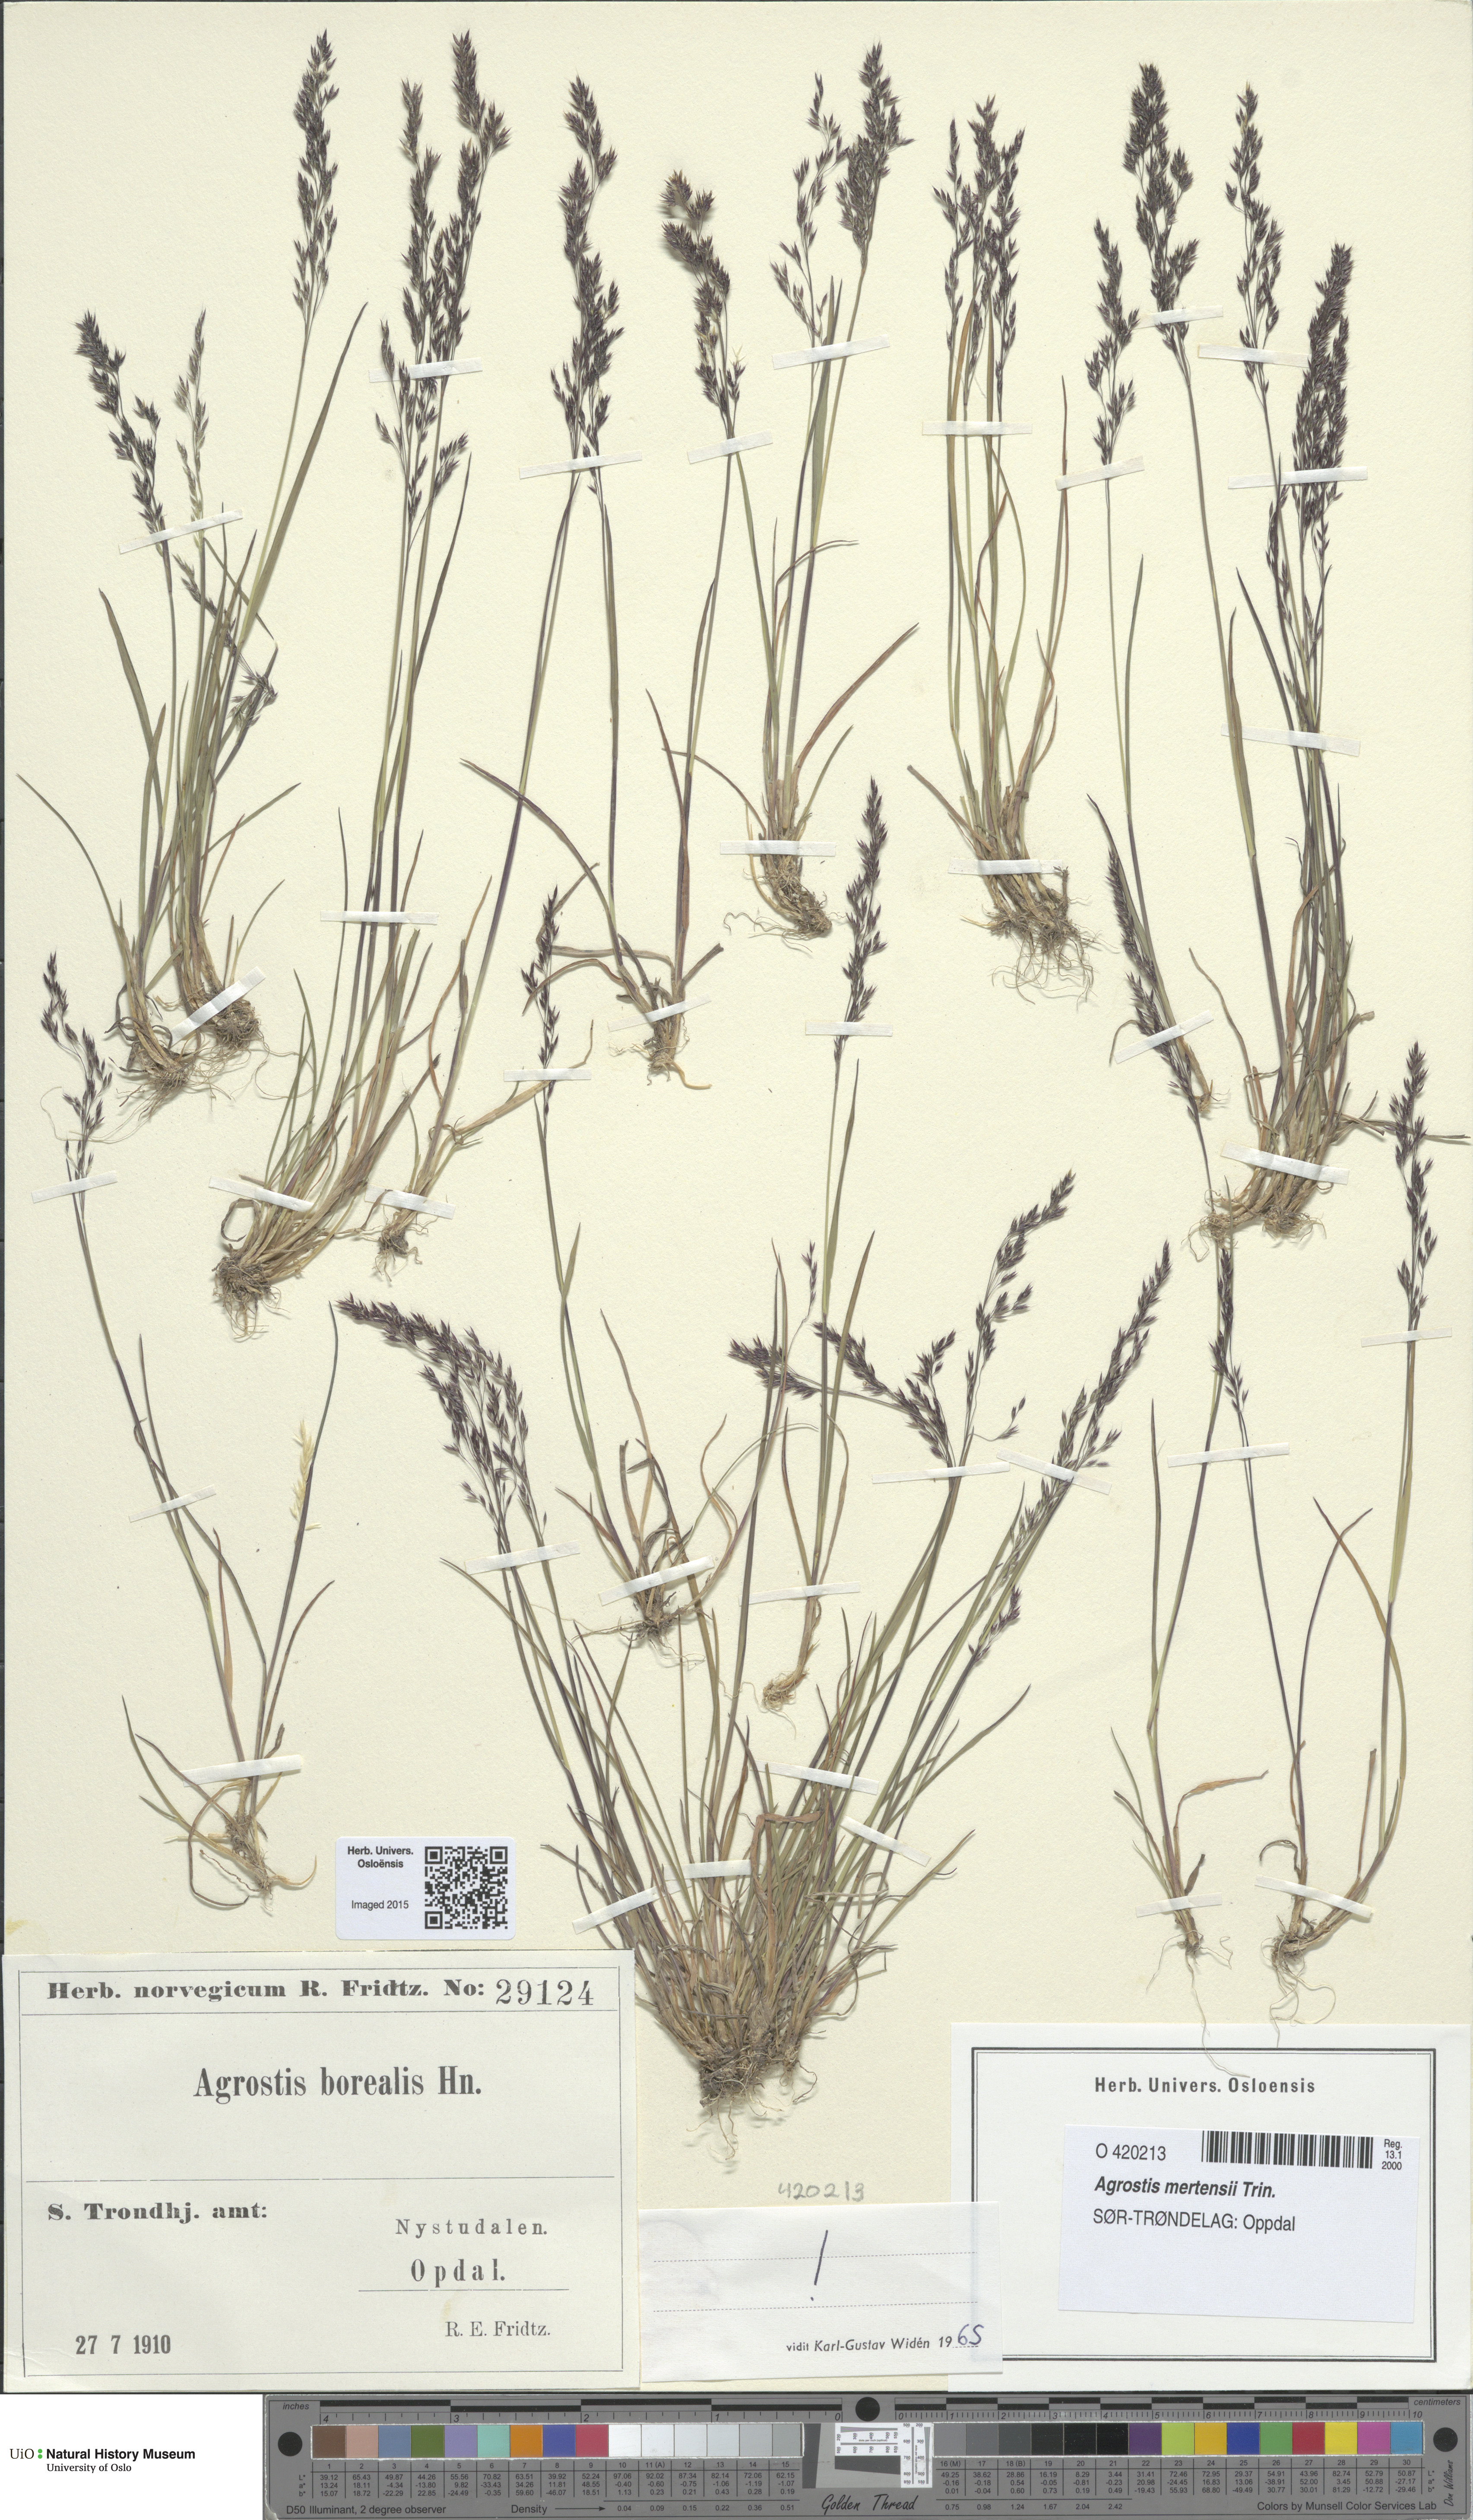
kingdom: Plantae
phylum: Tracheophyta
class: Liliopsida
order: Poales
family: Poaceae
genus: Agrostis
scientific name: Agrostis mertensii
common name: Northern bent
